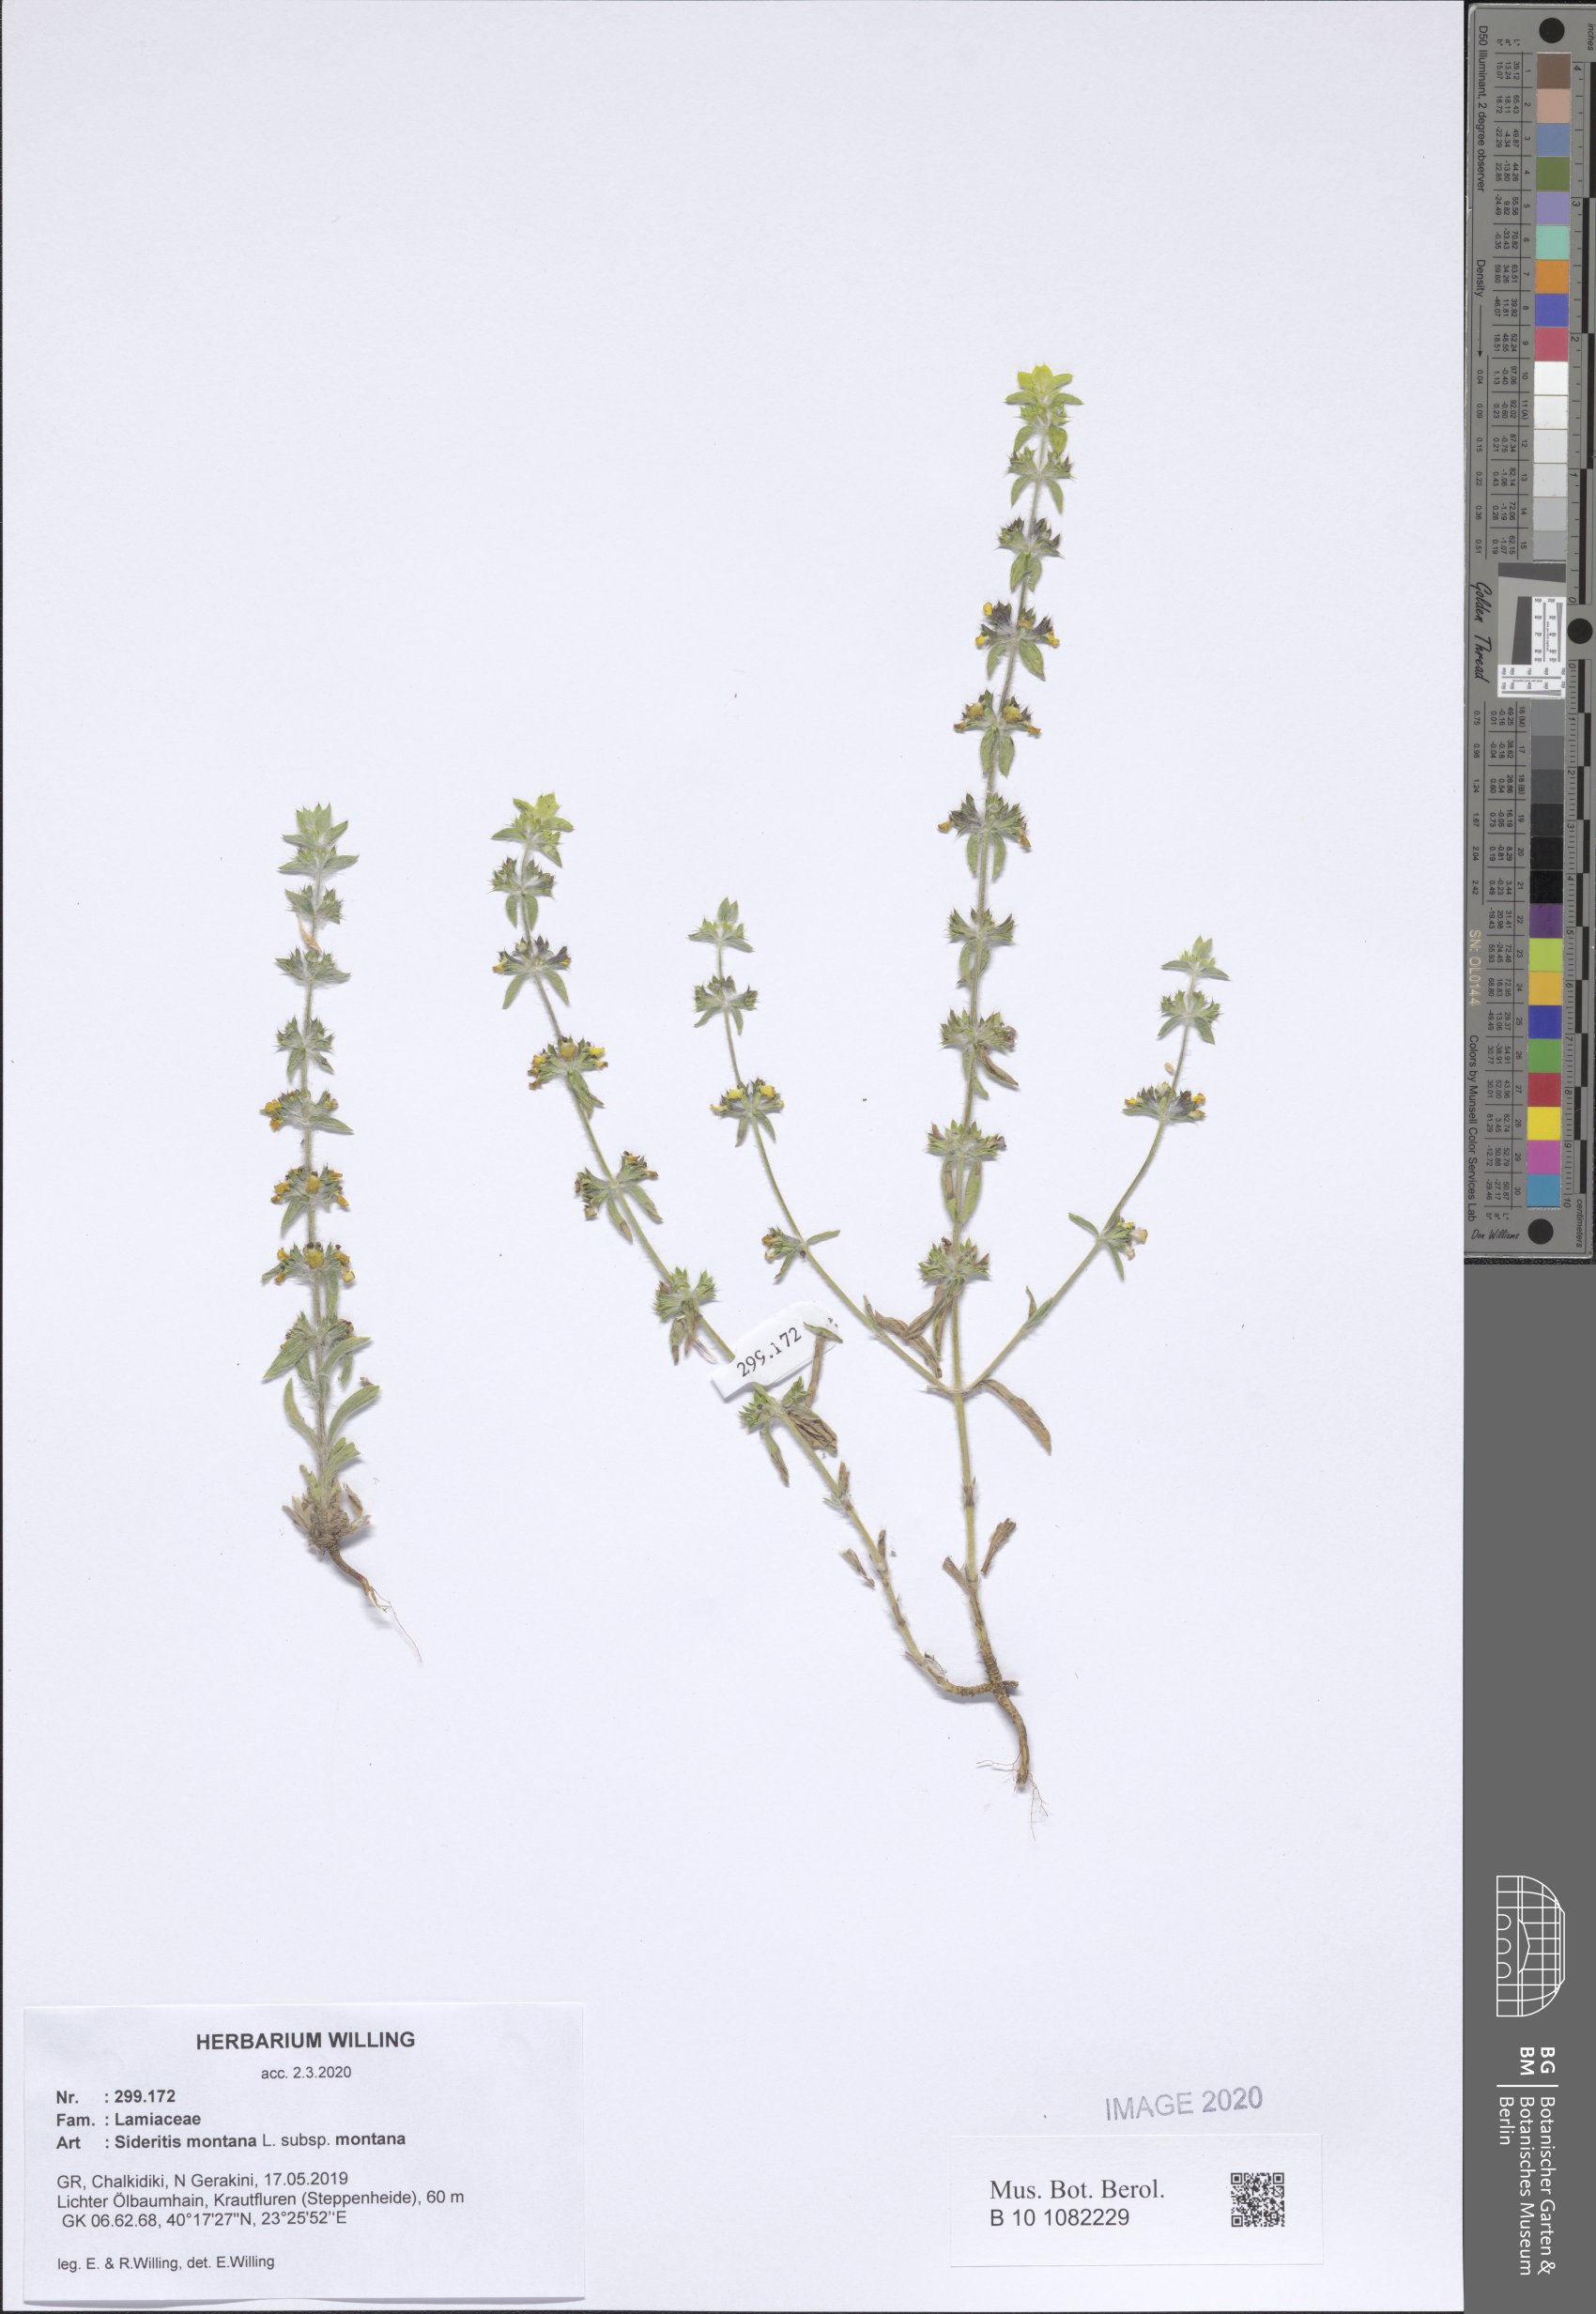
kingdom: Plantae
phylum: Tracheophyta
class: Magnoliopsida
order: Lamiales
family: Lamiaceae
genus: Sideritis
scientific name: Sideritis montana
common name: Mountain ironwort
